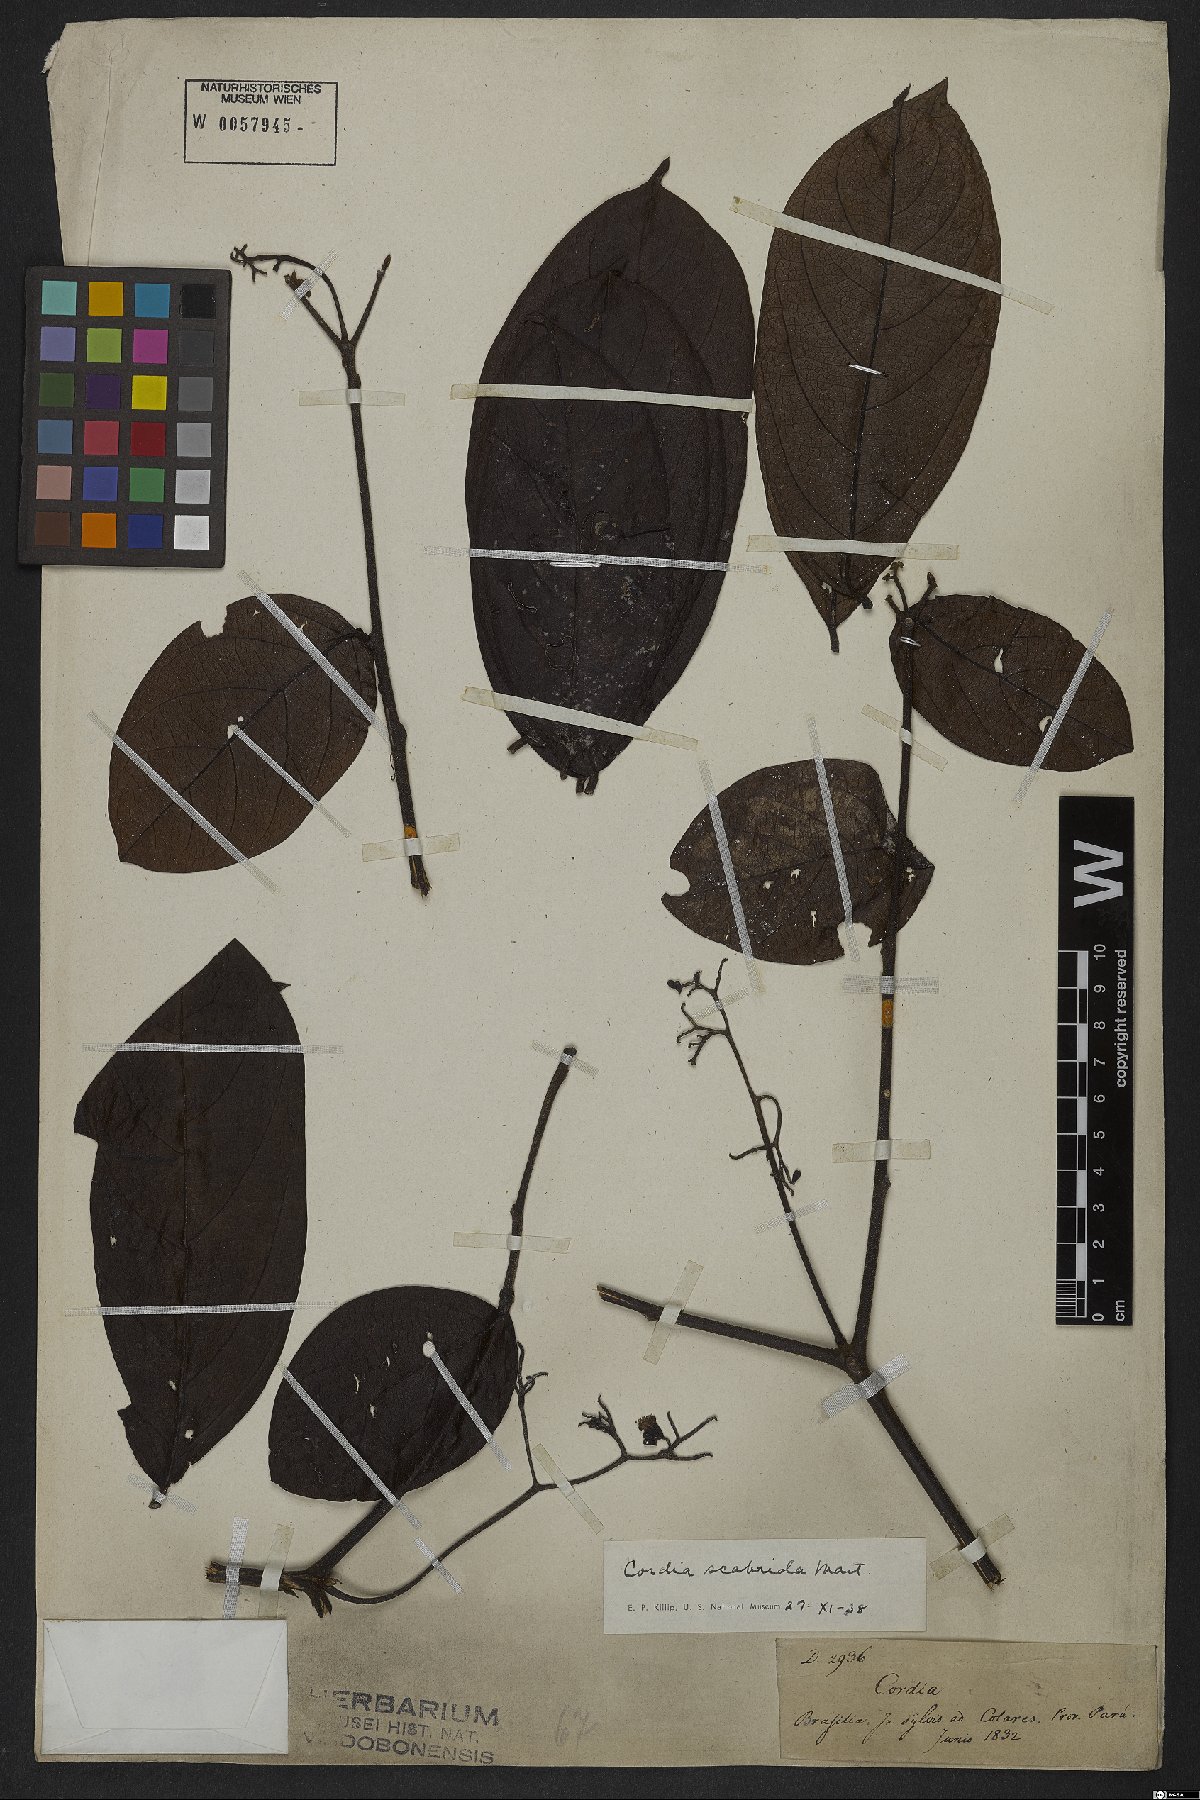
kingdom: Plantae
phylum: Tracheophyta
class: Magnoliopsida
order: Boraginales
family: Cordiaceae
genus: Cordia
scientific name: Cordia exaltata
